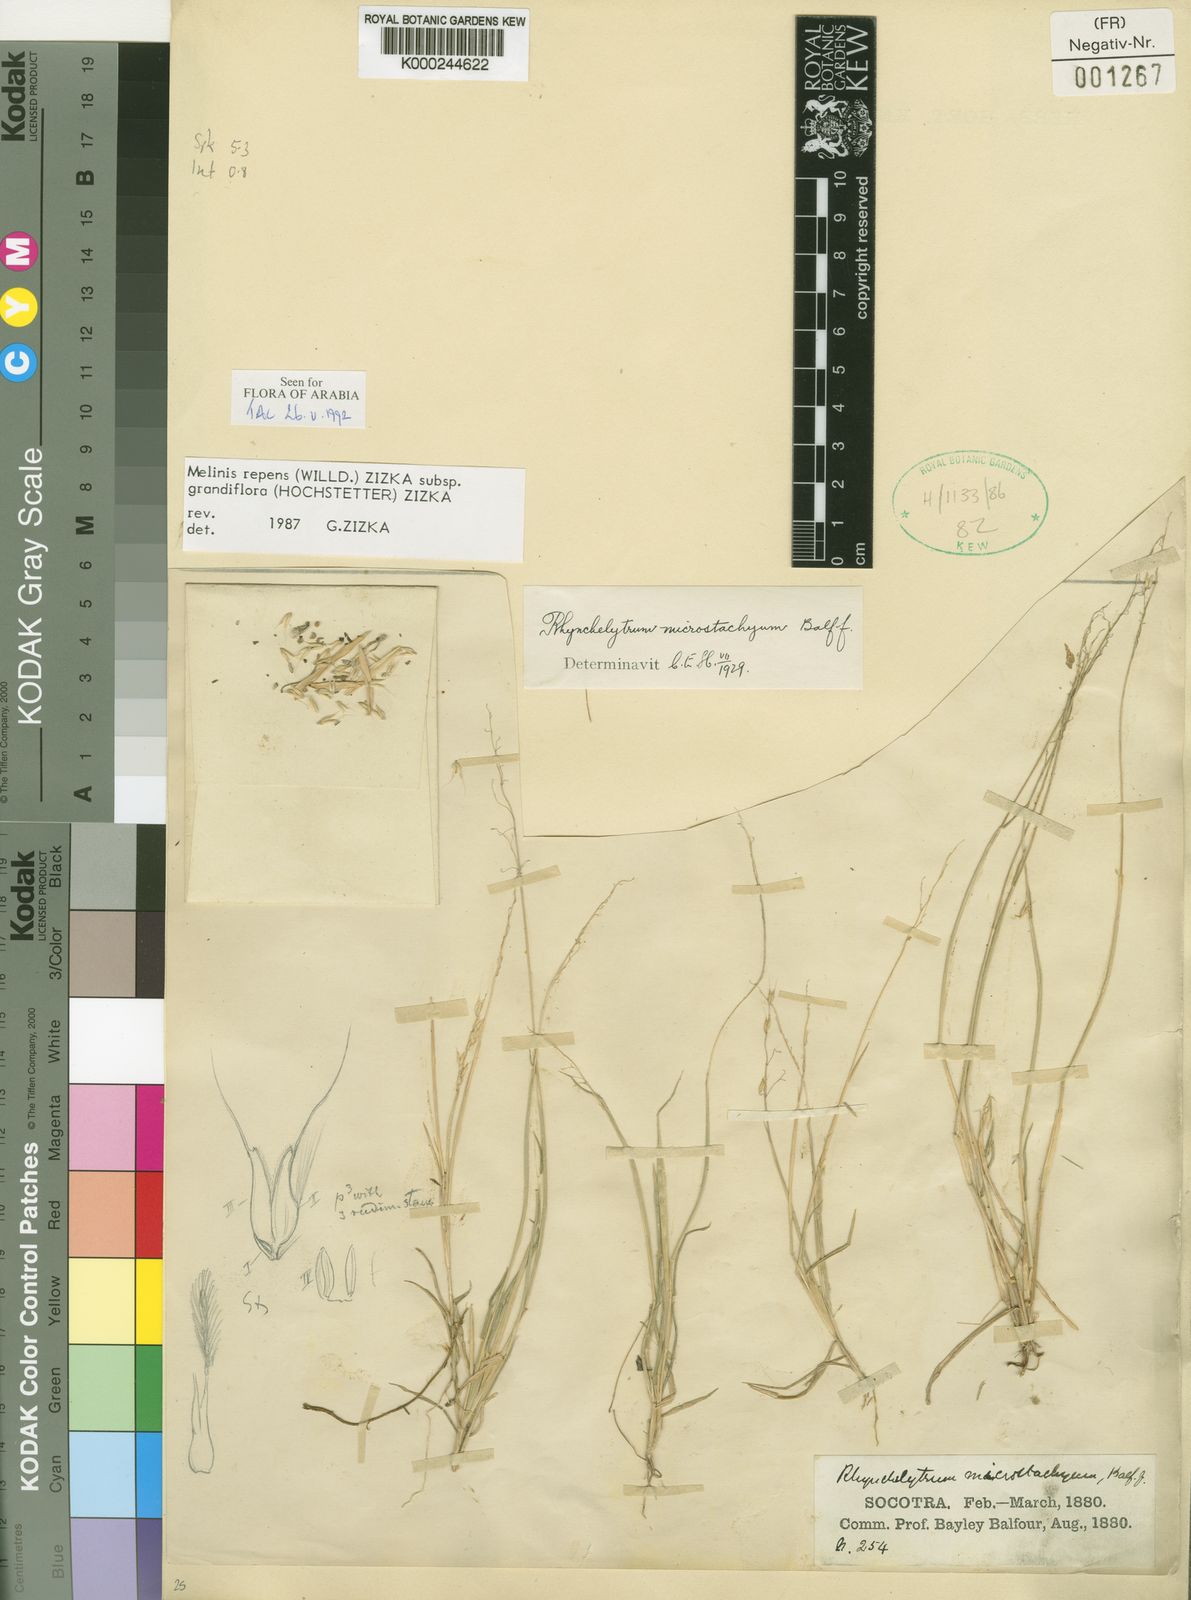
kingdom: Plantae
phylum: Tracheophyta
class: Liliopsida
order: Poales
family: Poaceae
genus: Melinis
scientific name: Melinis repens
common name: Rose natal grass
